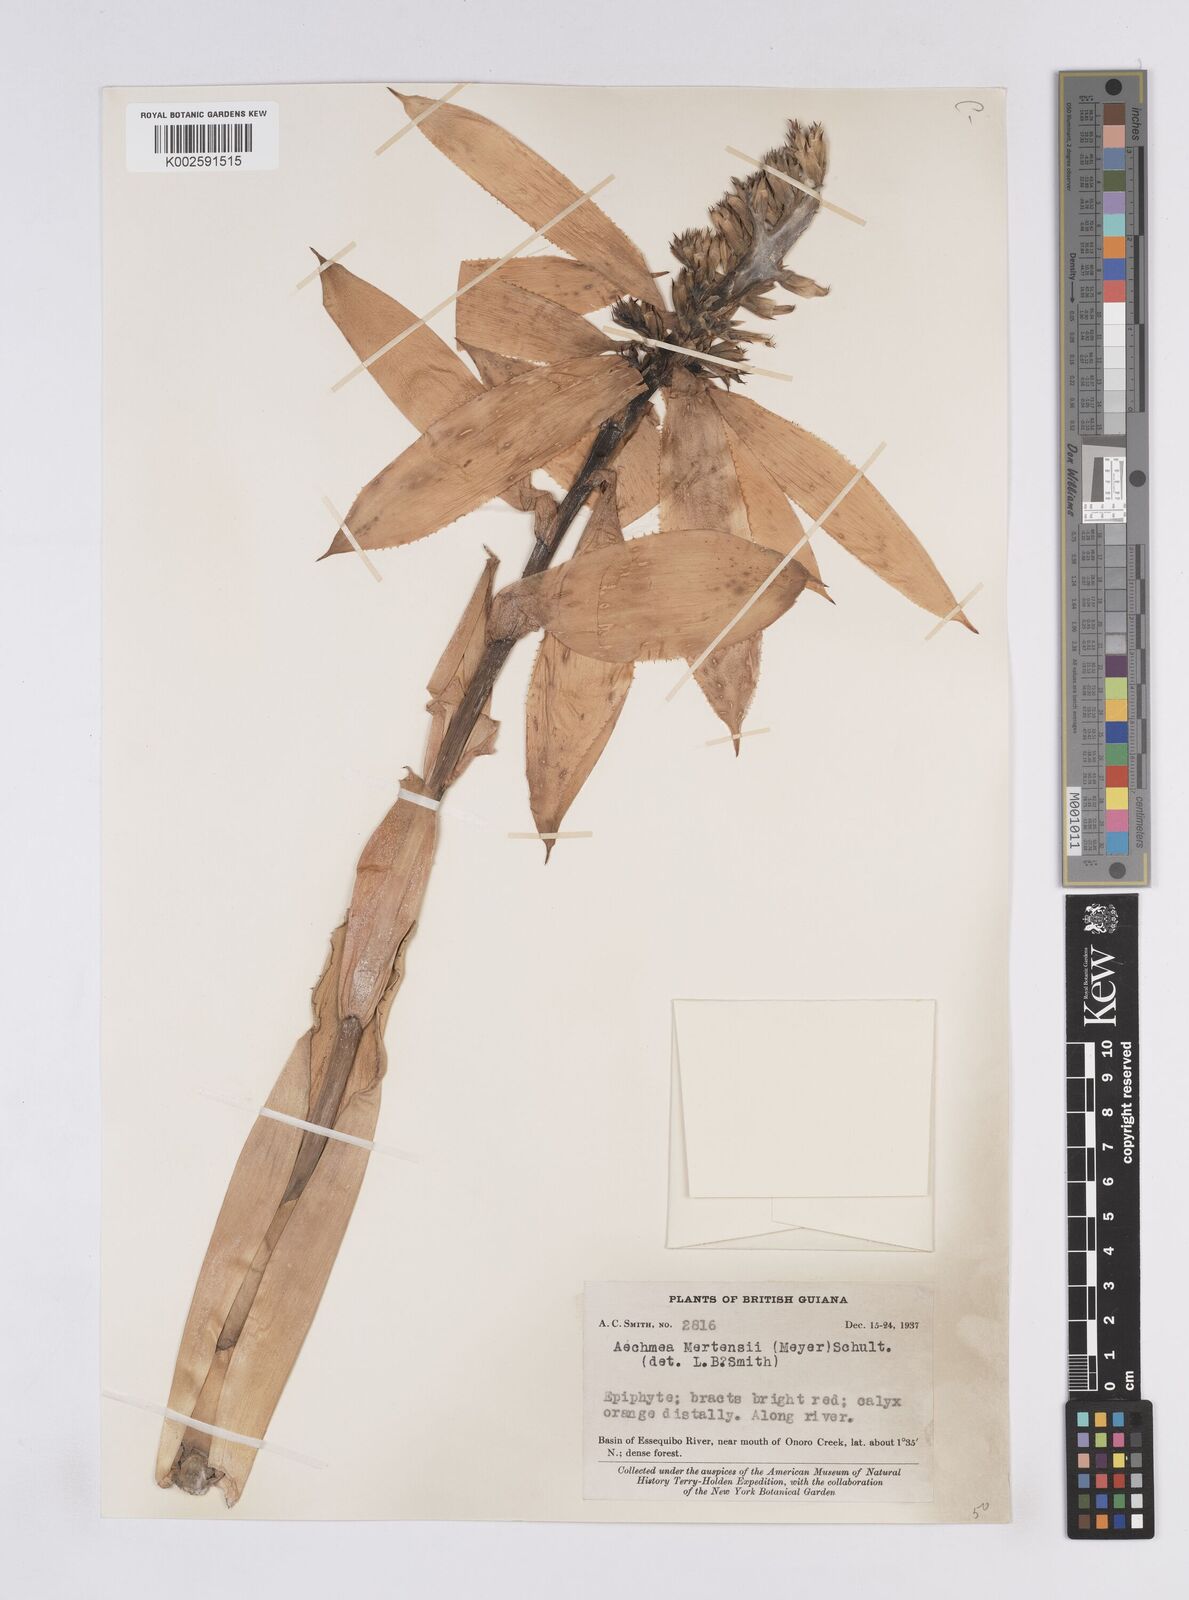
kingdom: Plantae
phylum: Tracheophyta
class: Liliopsida
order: Poales
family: Bromeliaceae
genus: Aechmea
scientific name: Aechmea mertensii
